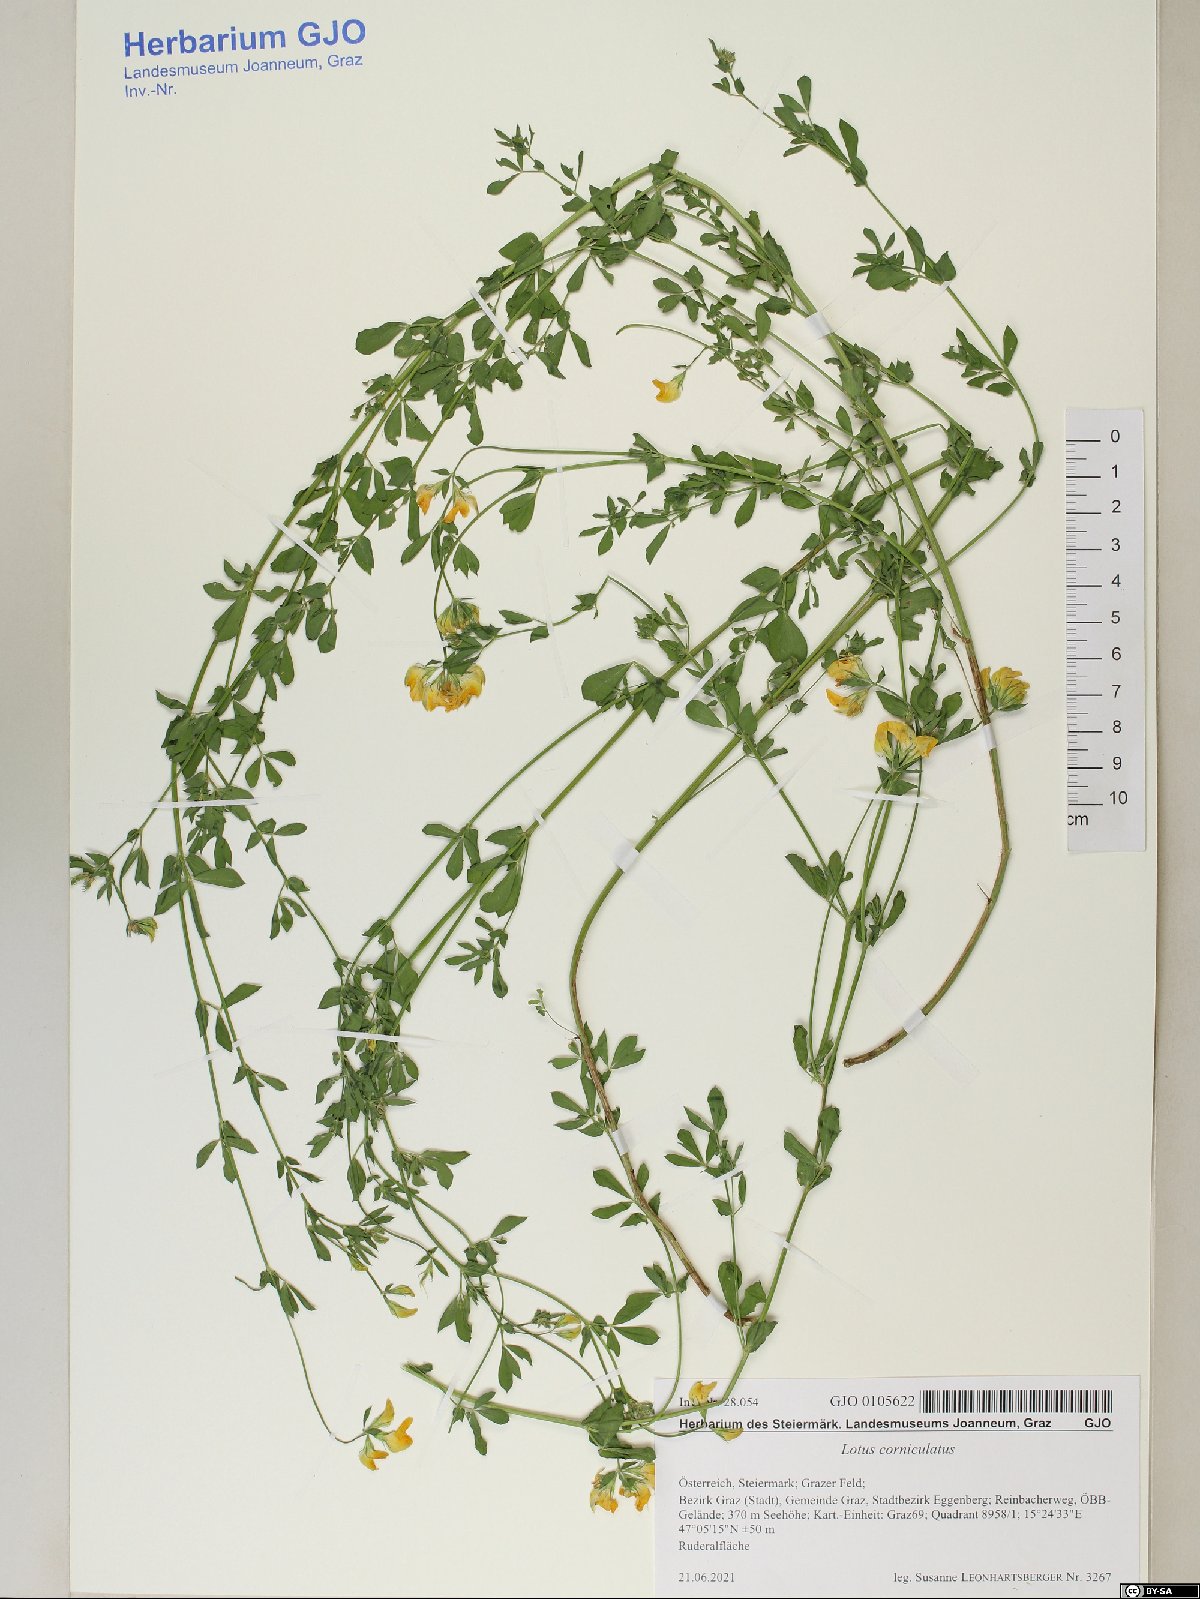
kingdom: Plantae
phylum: Tracheophyta
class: Magnoliopsida
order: Fabales
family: Fabaceae
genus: Lotus
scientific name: Lotus corniculatus
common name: Common bird's-foot-trefoil
